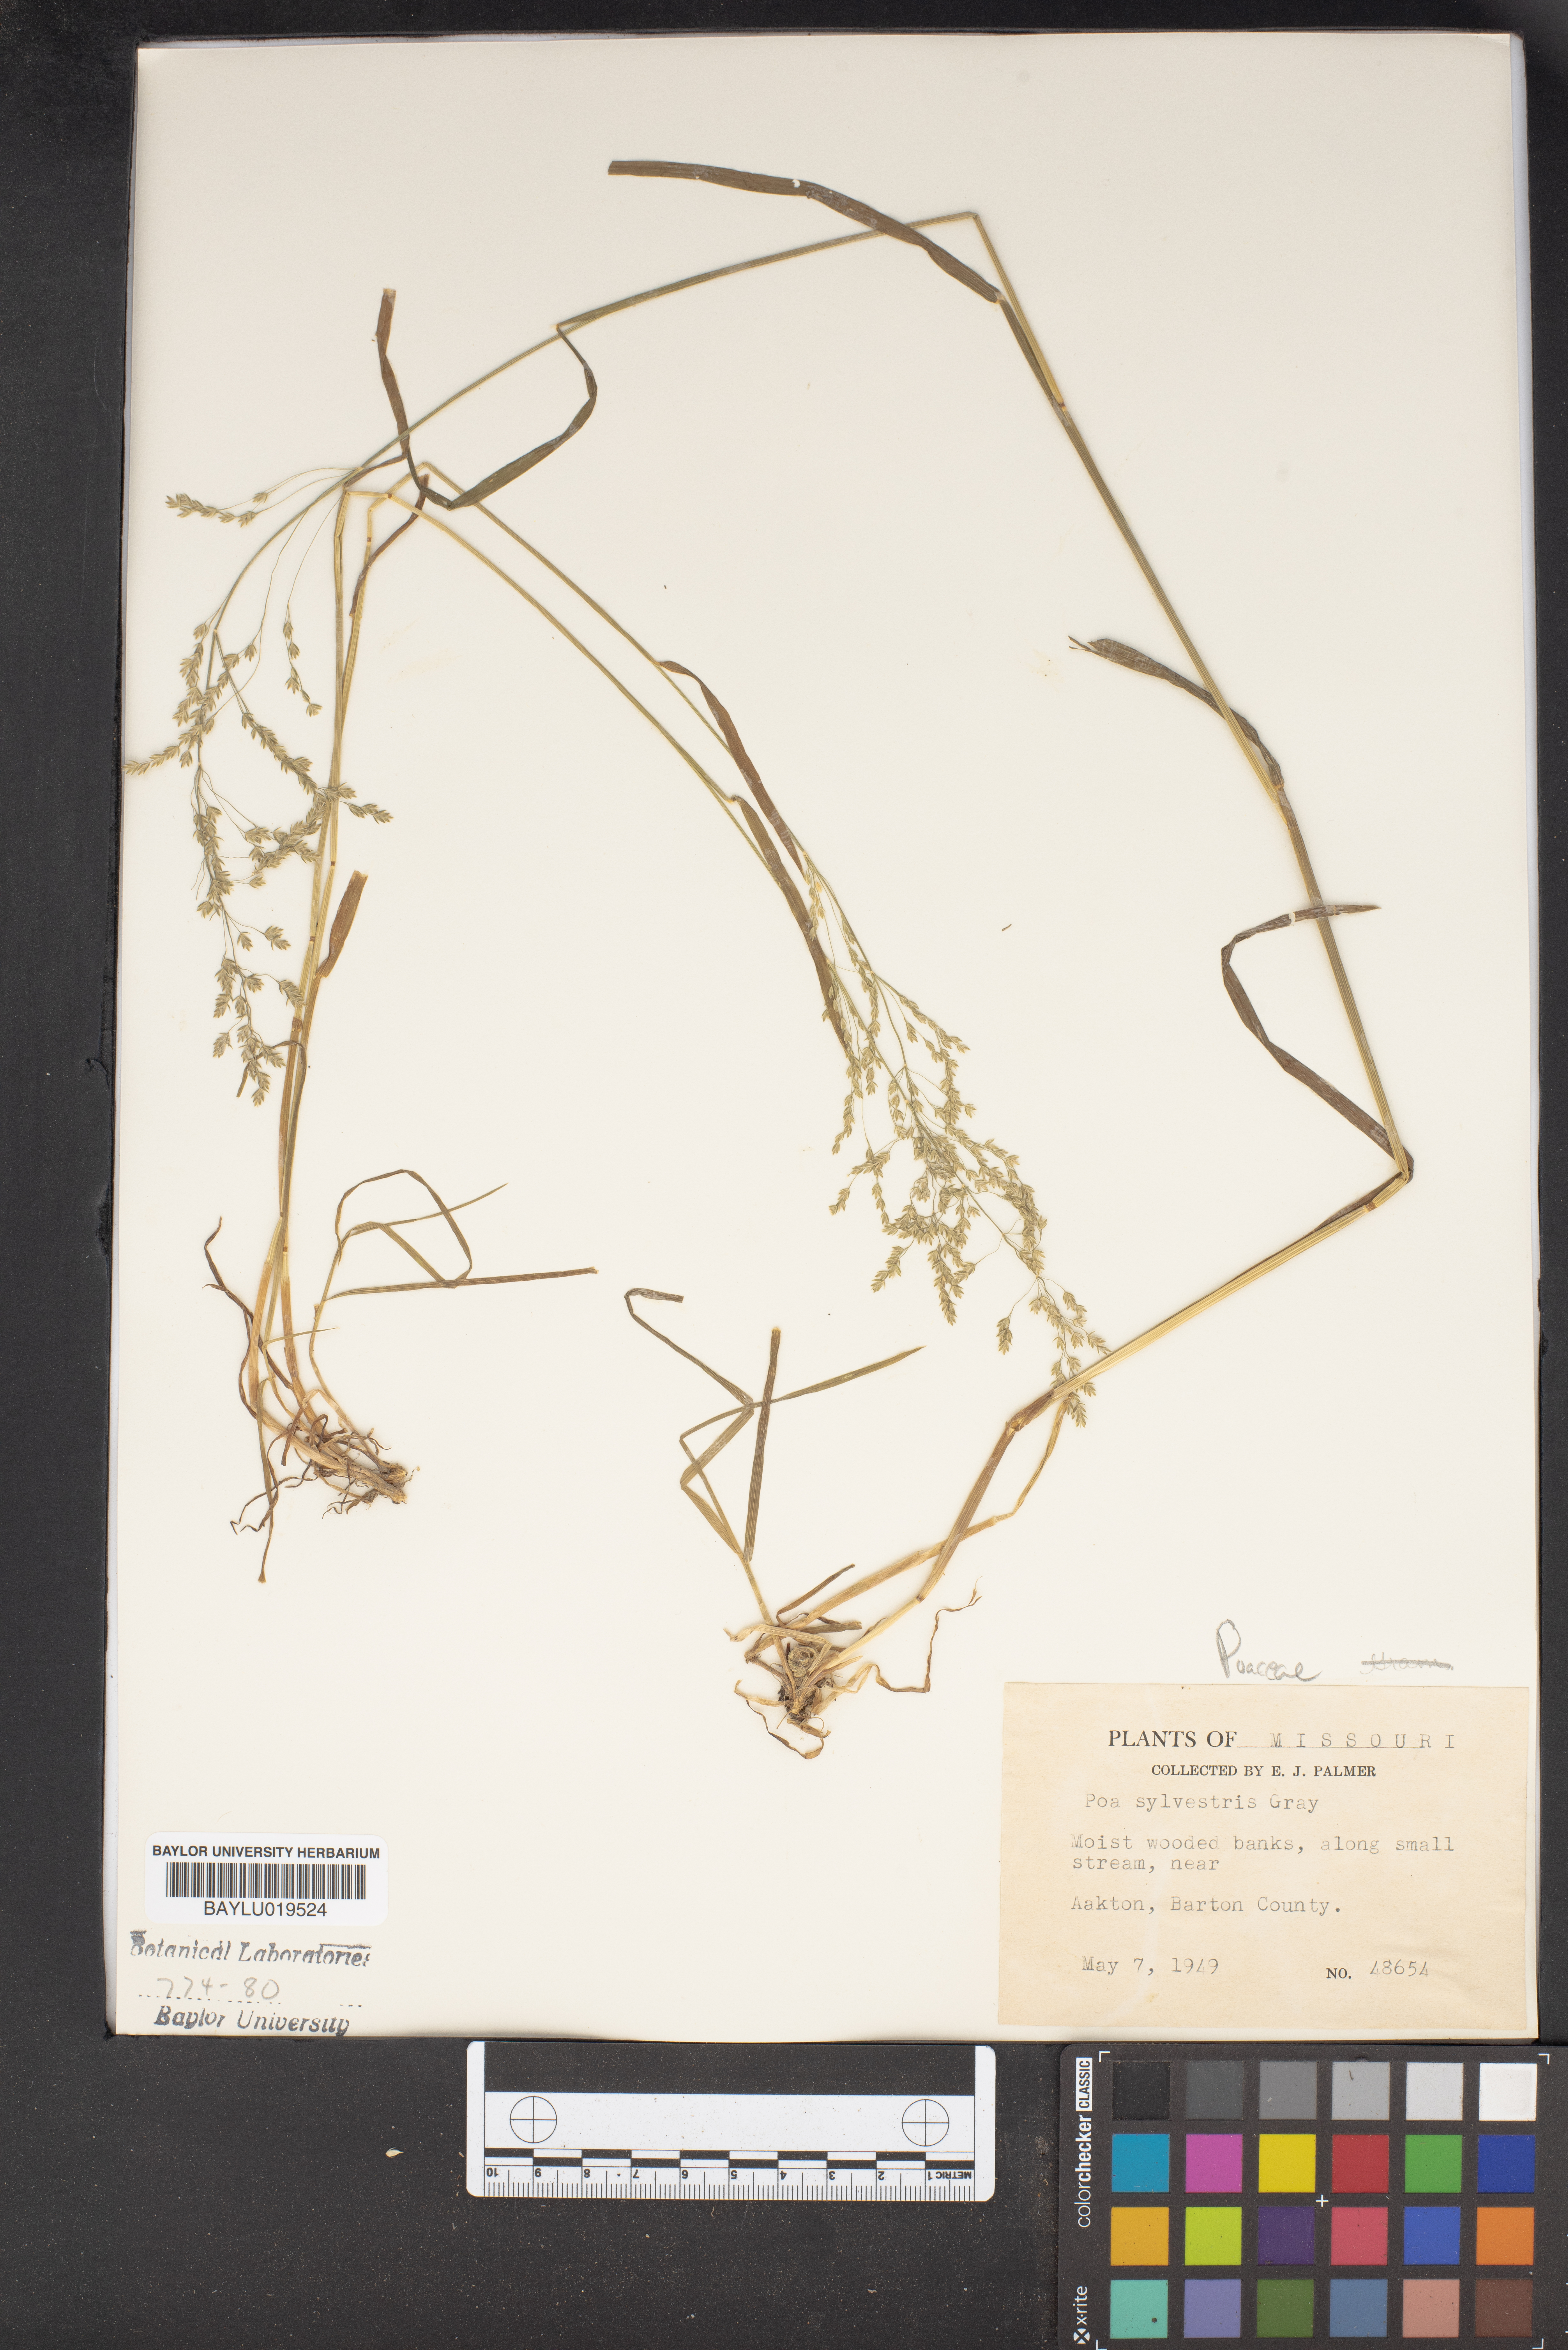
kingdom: Plantae
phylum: Tracheophyta
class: Liliopsida
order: Poales
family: Poaceae
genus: Poa
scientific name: Poa sylvestris
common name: North american woodland bluegrass
